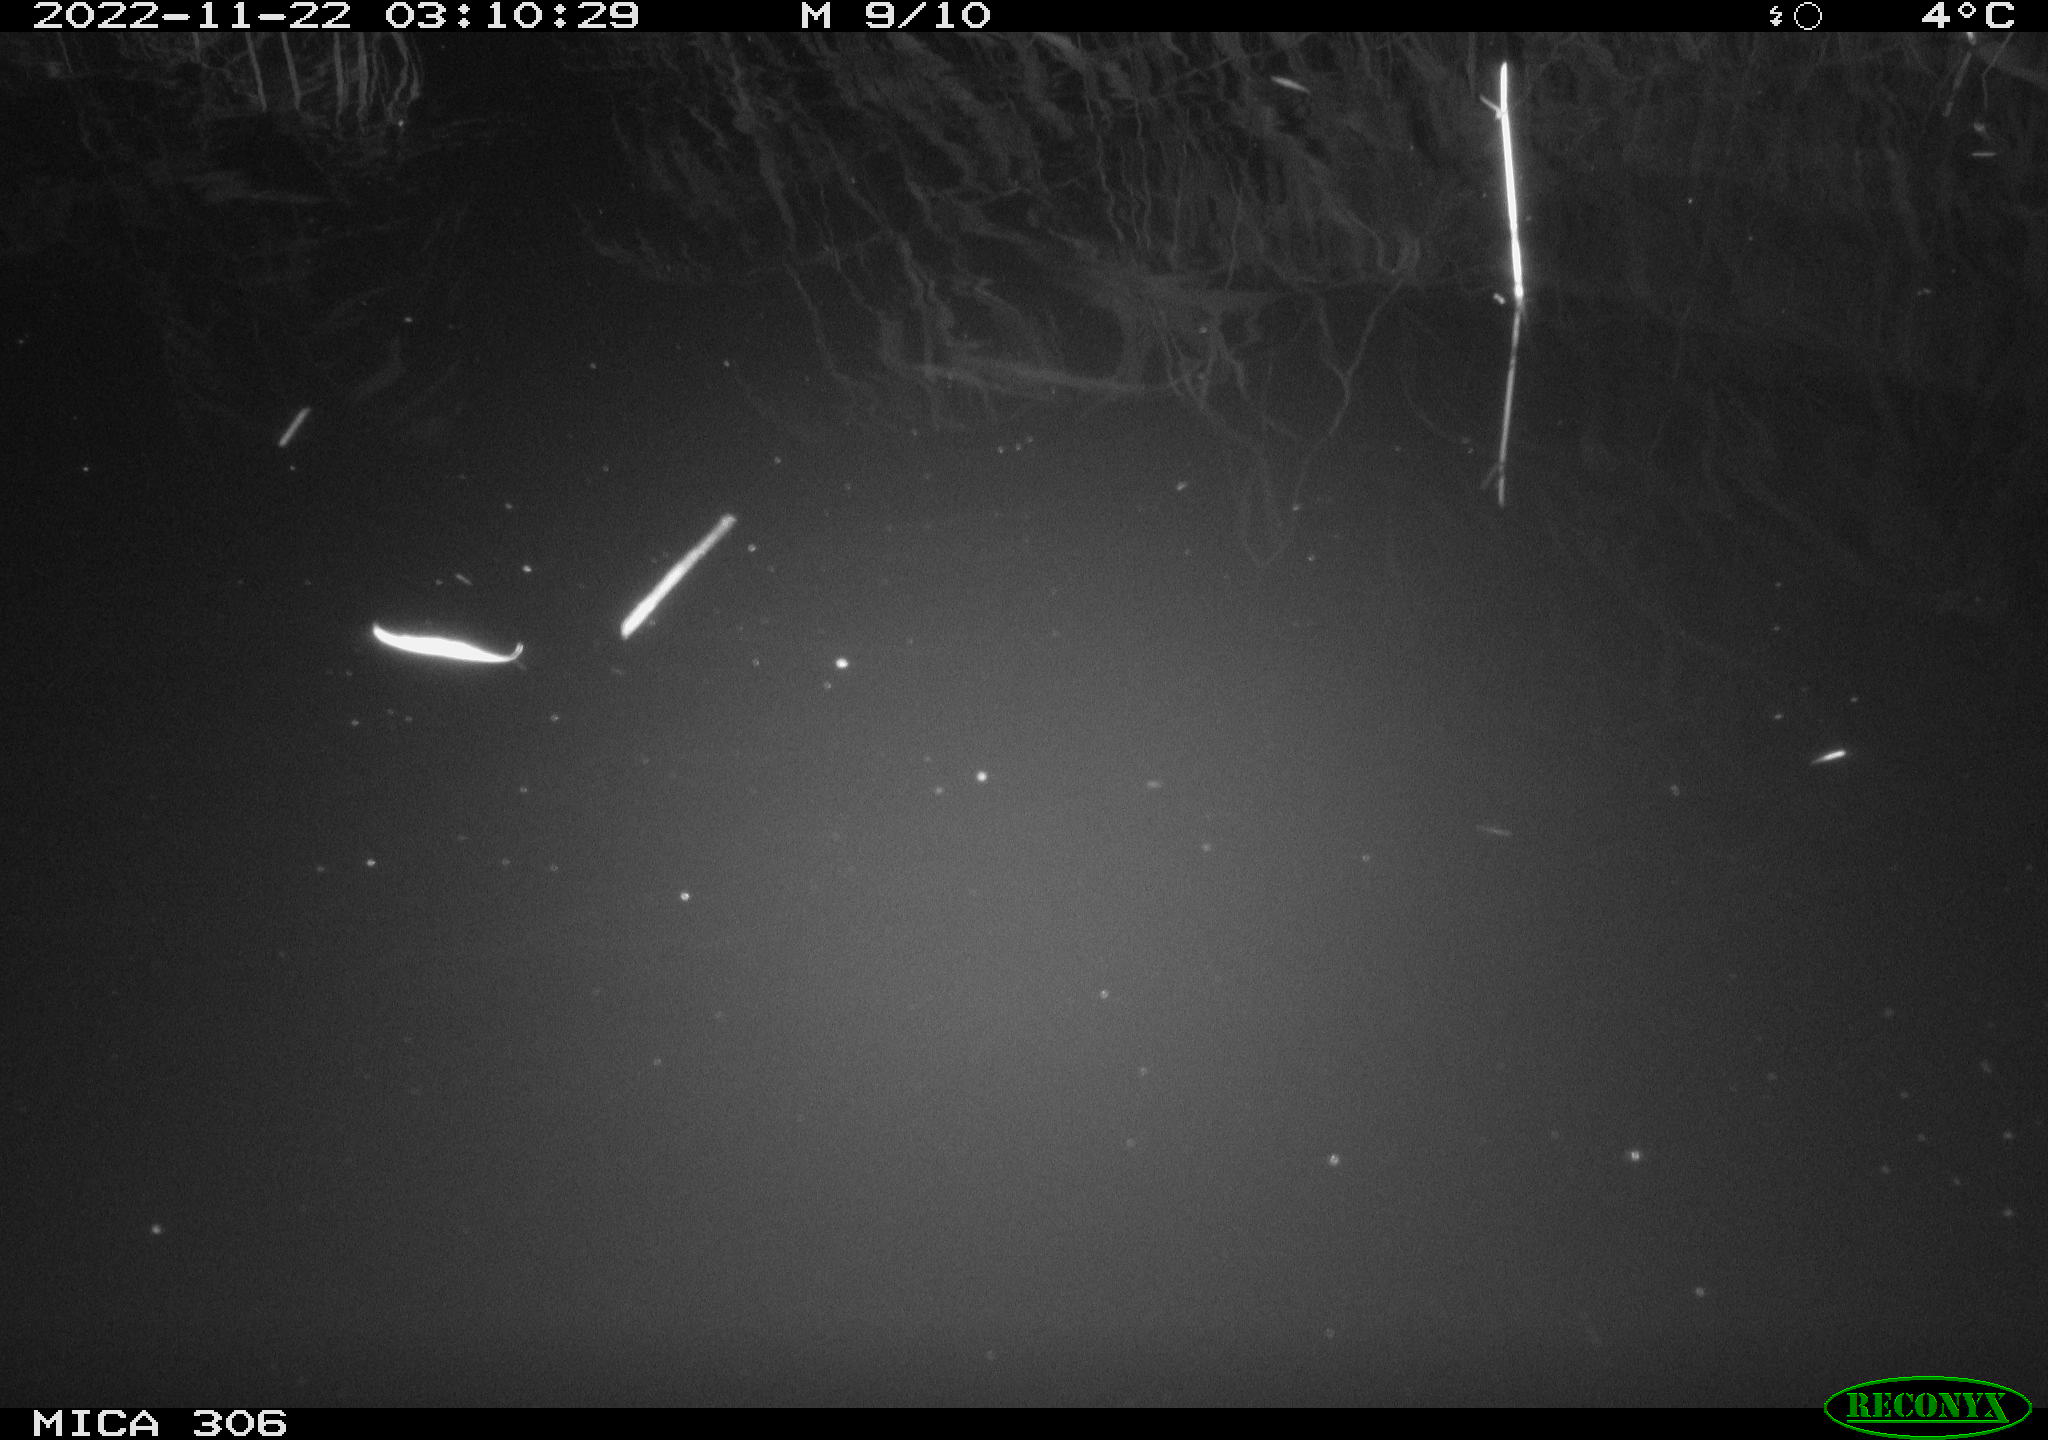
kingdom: Animalia
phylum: Chordata
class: Mammalia
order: Rodentia
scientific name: Rodentia
